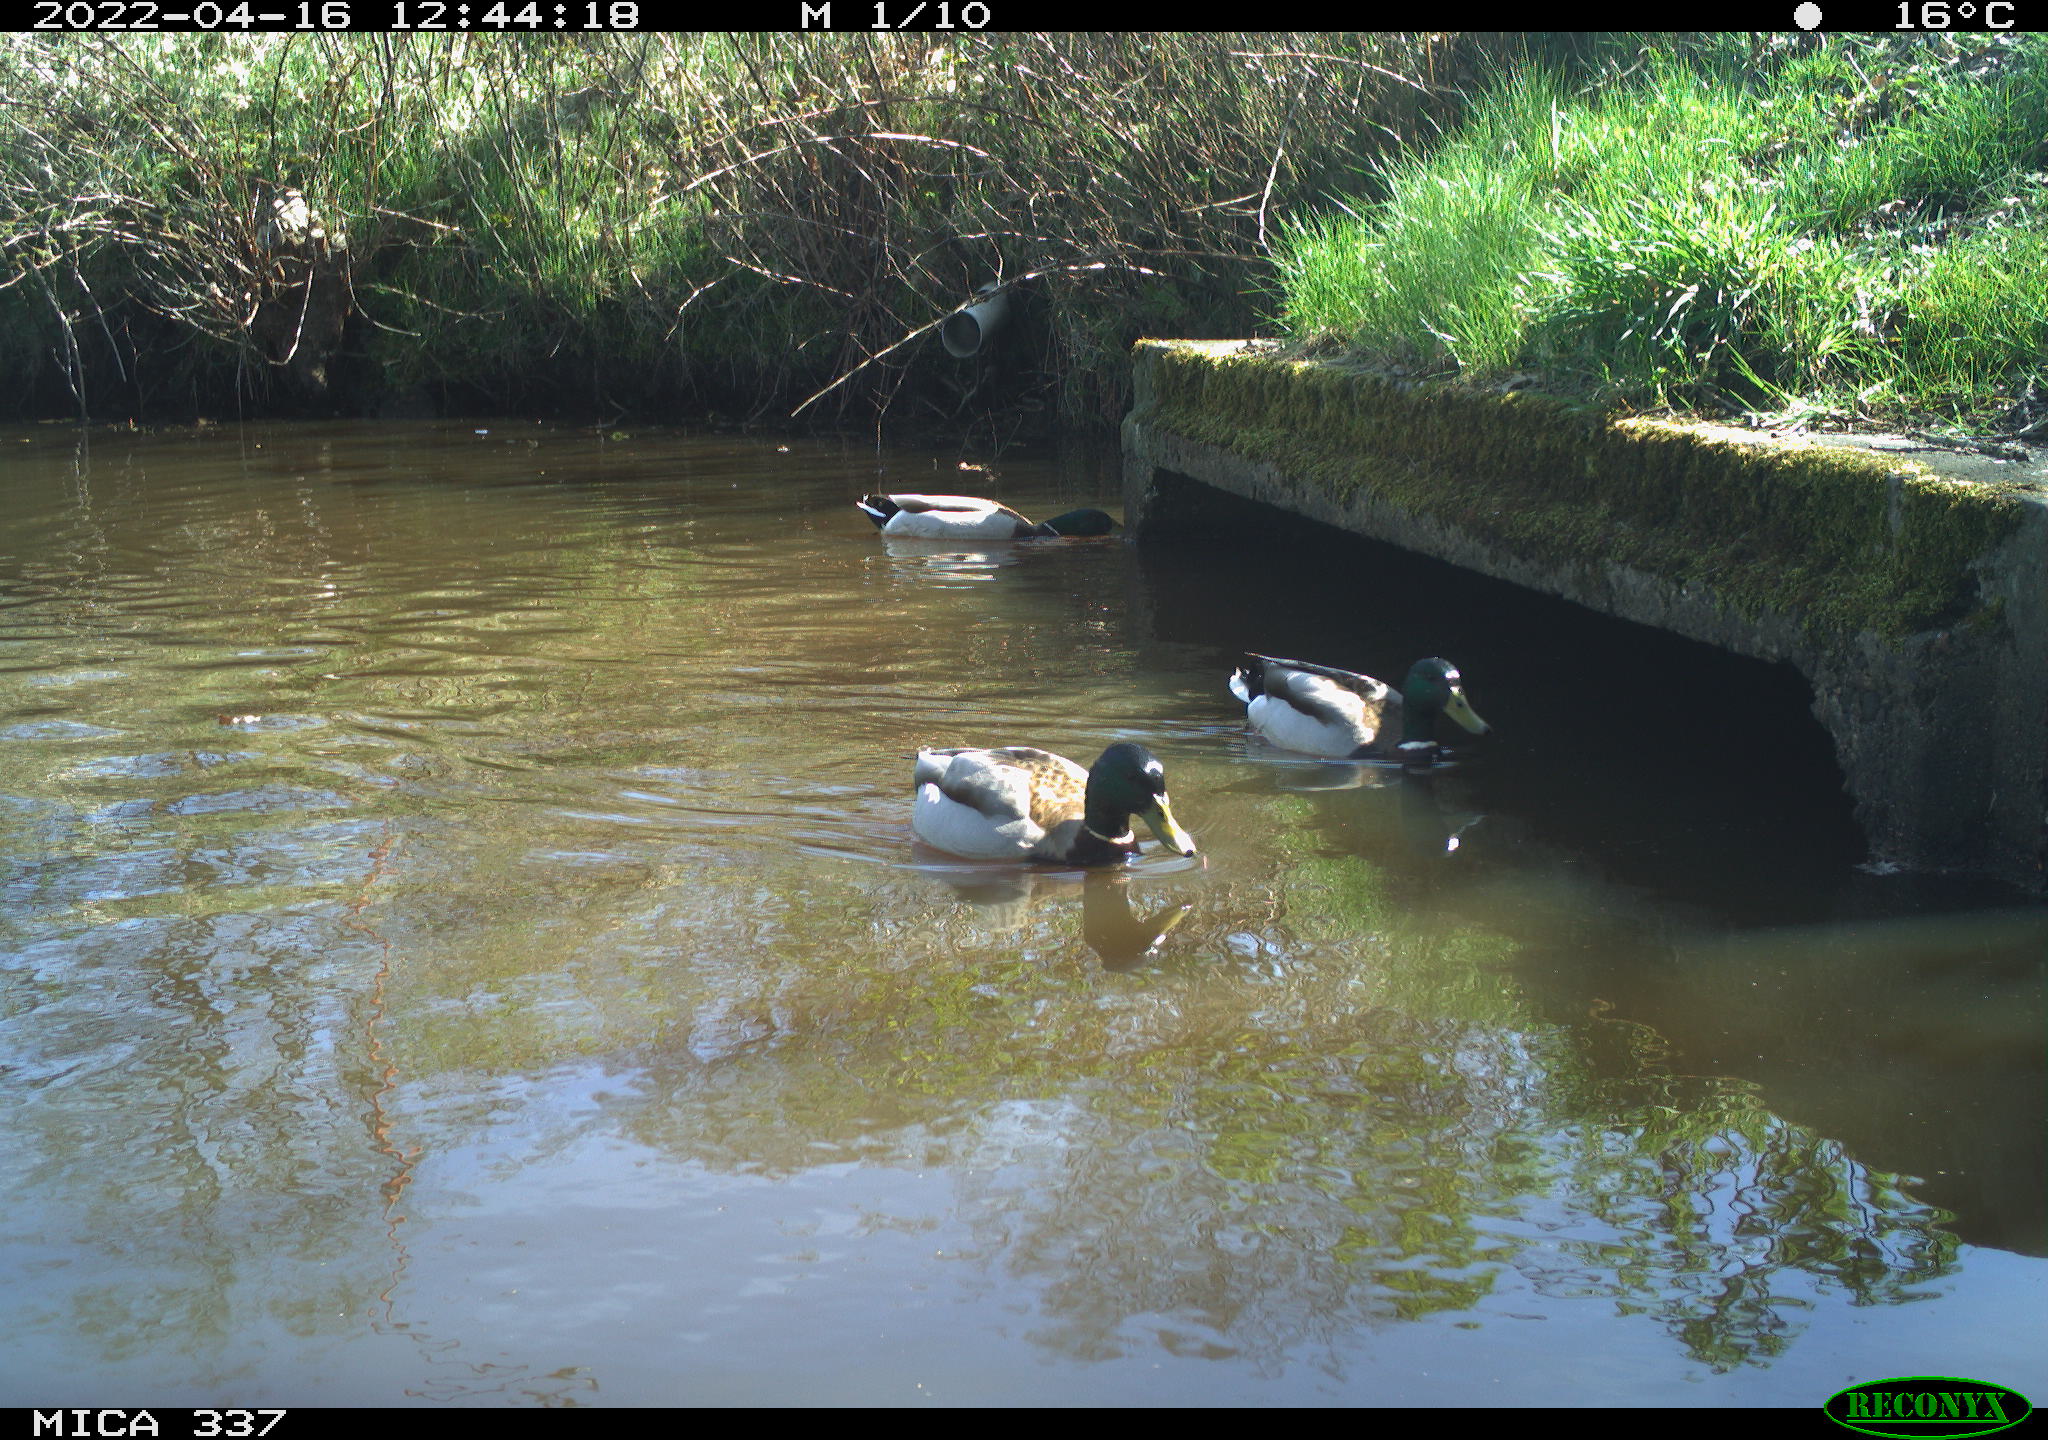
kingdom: Animalia
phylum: Chordata
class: Aves
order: Gruiformes
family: Rallidae
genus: Gallinula
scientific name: Gallinula chloropus
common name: Common moorhen
